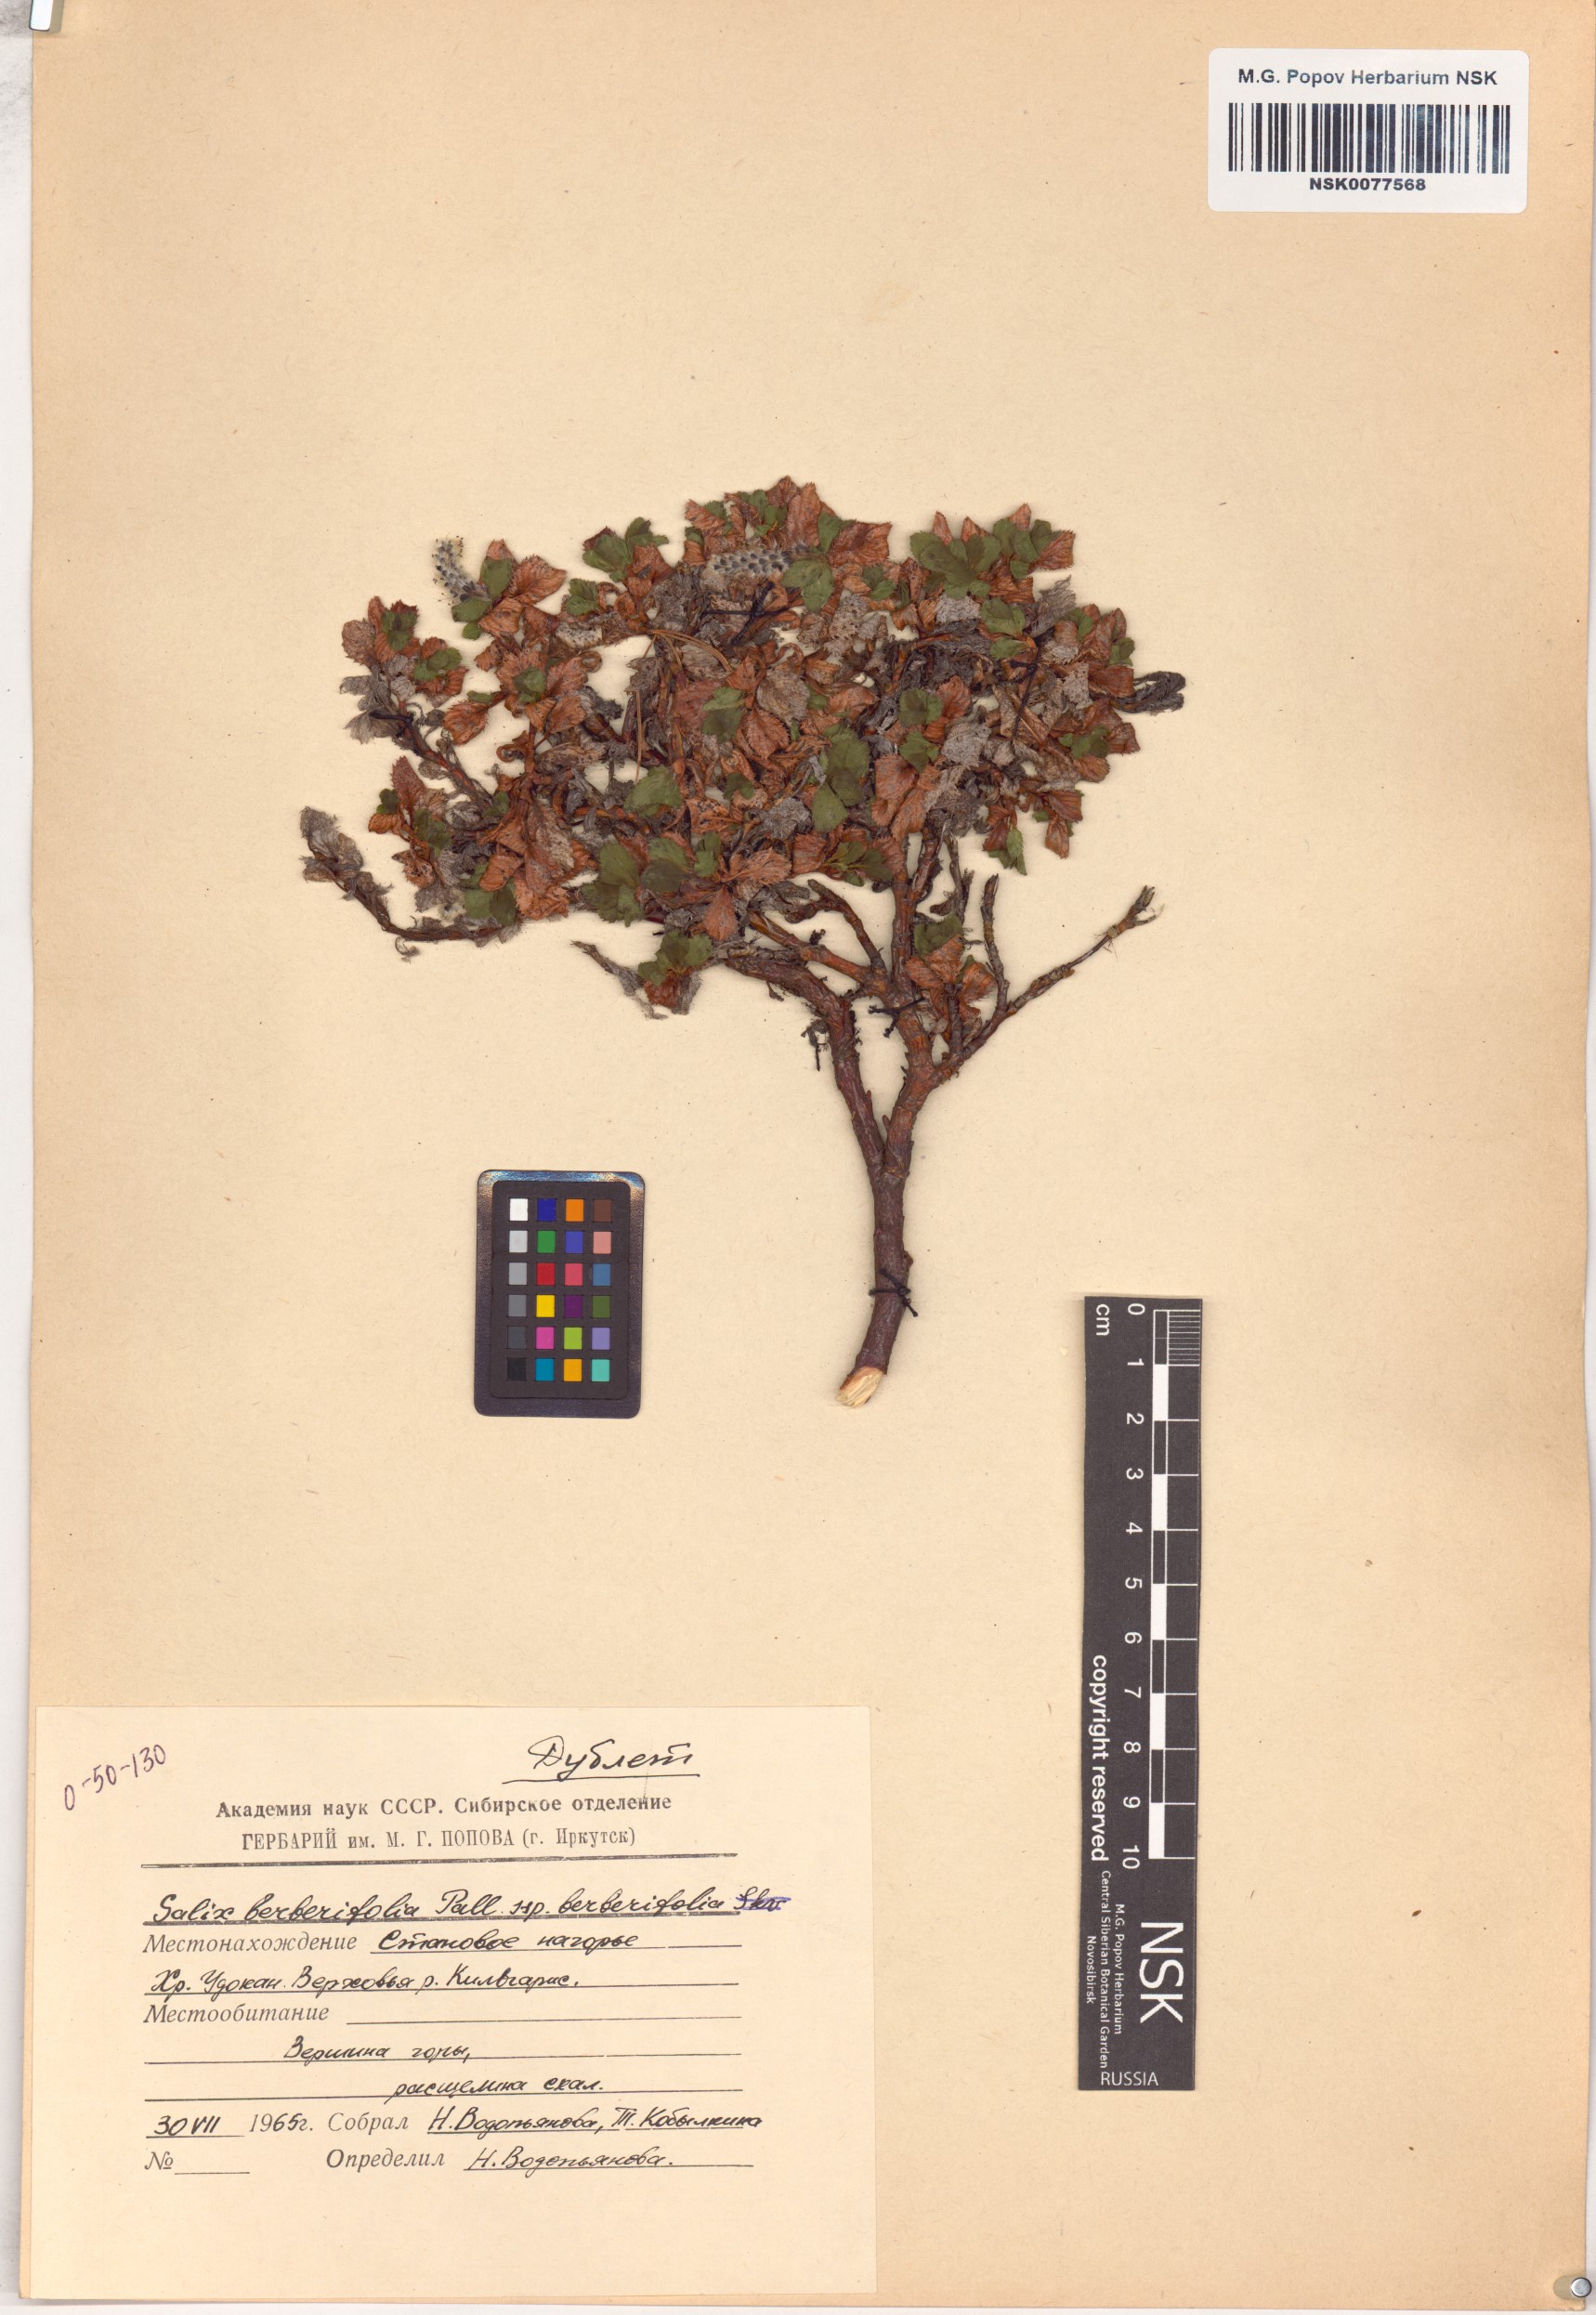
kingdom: Plantae
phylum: Tracheophyta
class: Magnoliopsida
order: Malpighiales
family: Salicaceae
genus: Salix
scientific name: Salix berberifolia
